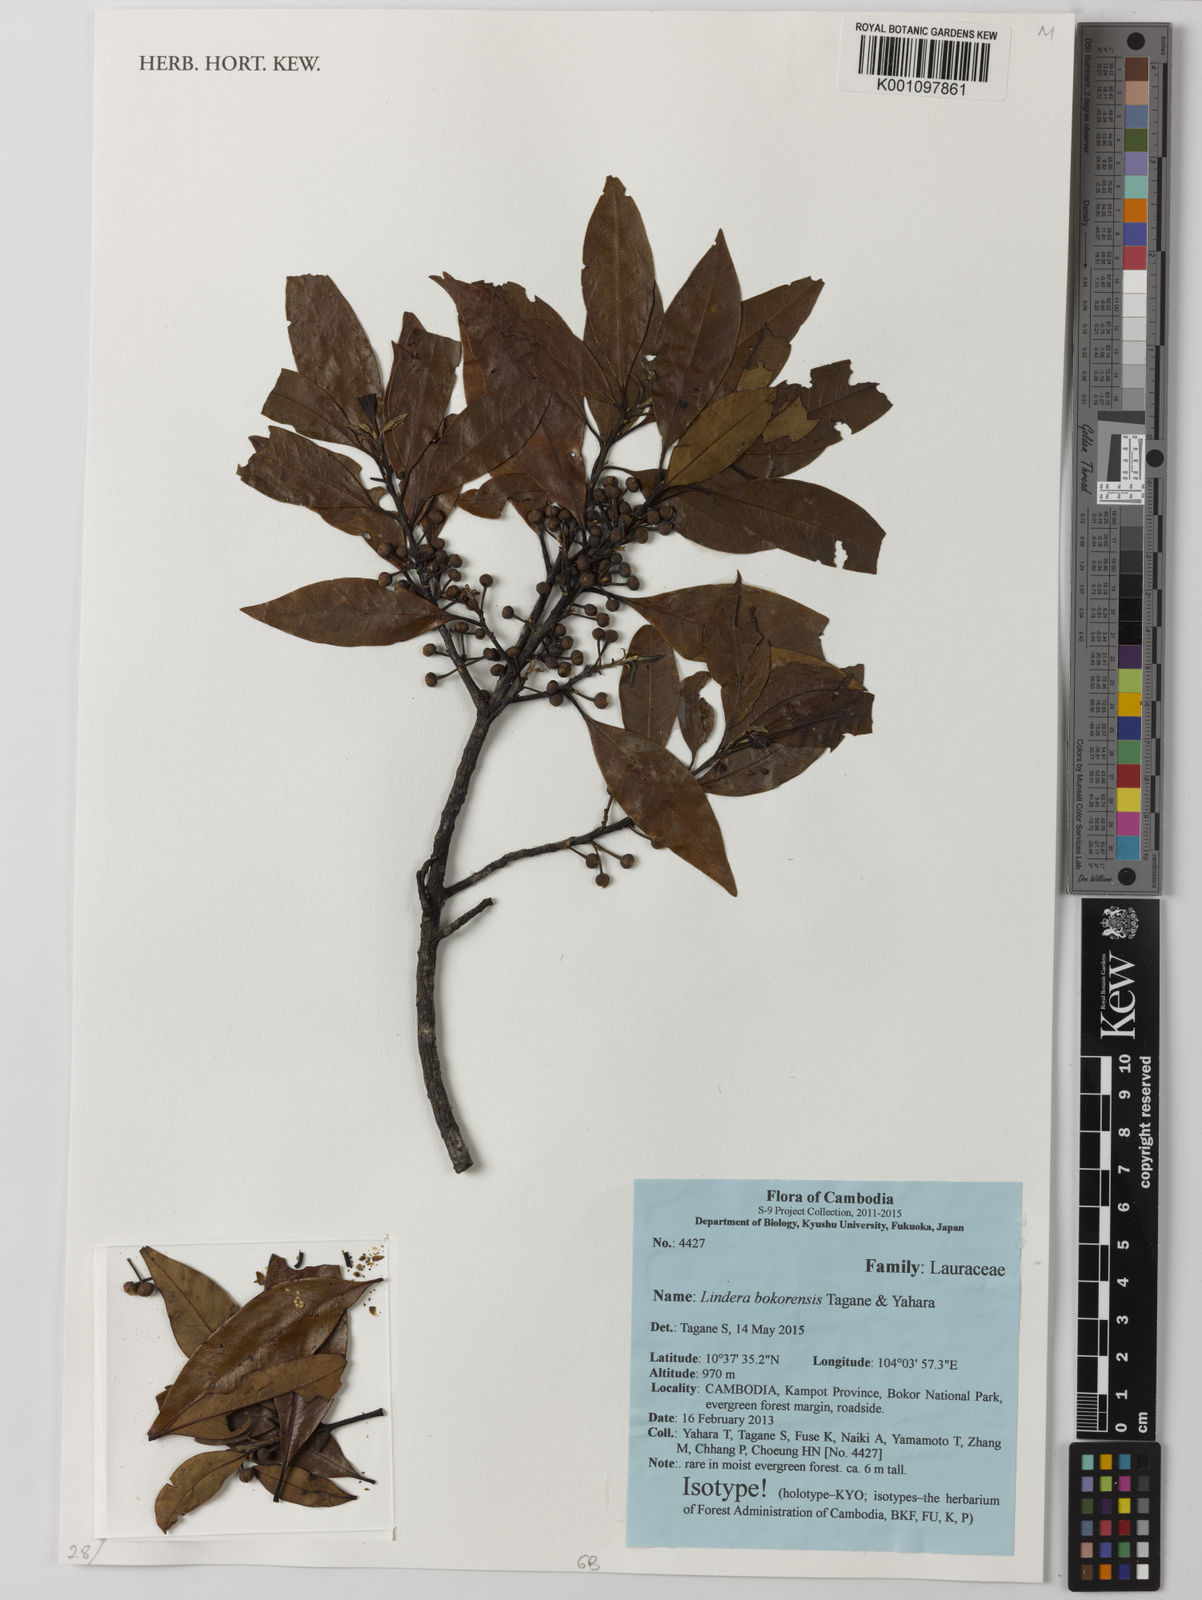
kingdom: Plantae
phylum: Tracheophyta
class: Magnoliopsida
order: Laurales
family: Lauraceae
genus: Lindera
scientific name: Lindera bokorensis
